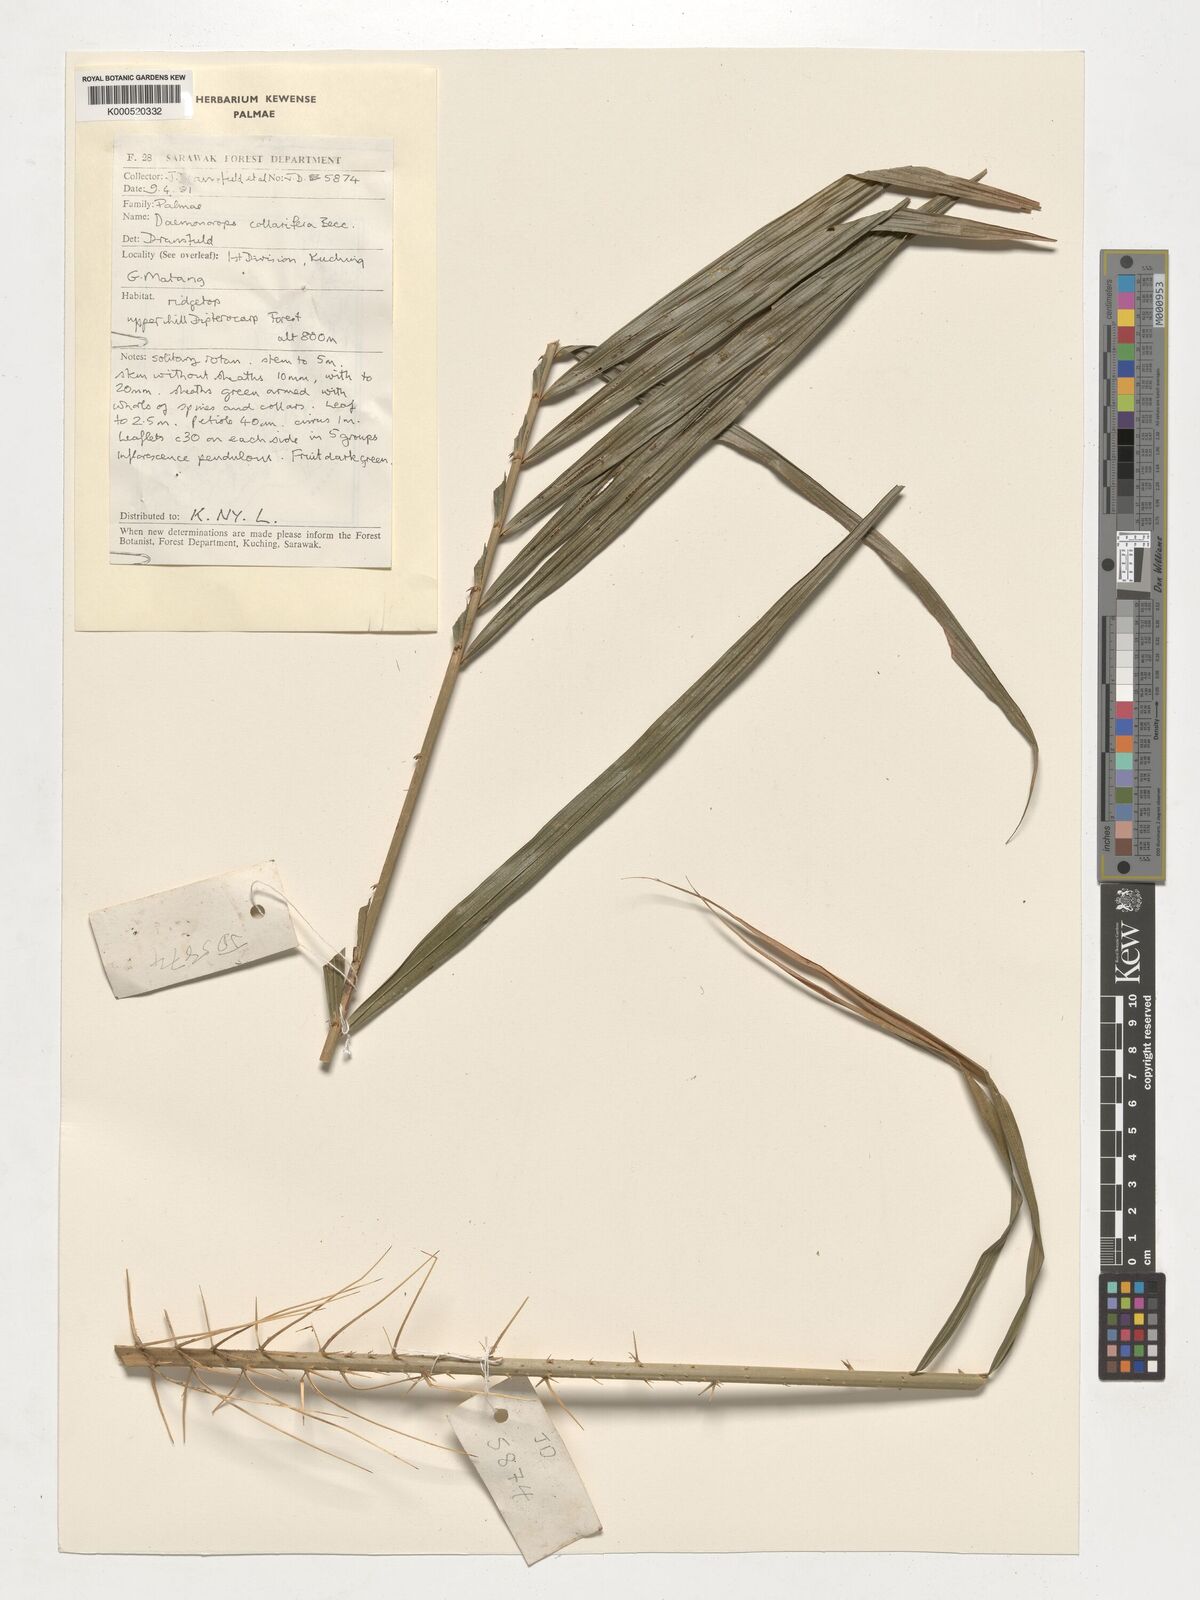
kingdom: Plantae
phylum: Tracheophyta
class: Liliopsida
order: Arecales
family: Arecaceae
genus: Calamus
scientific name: Calamus geniculatus
